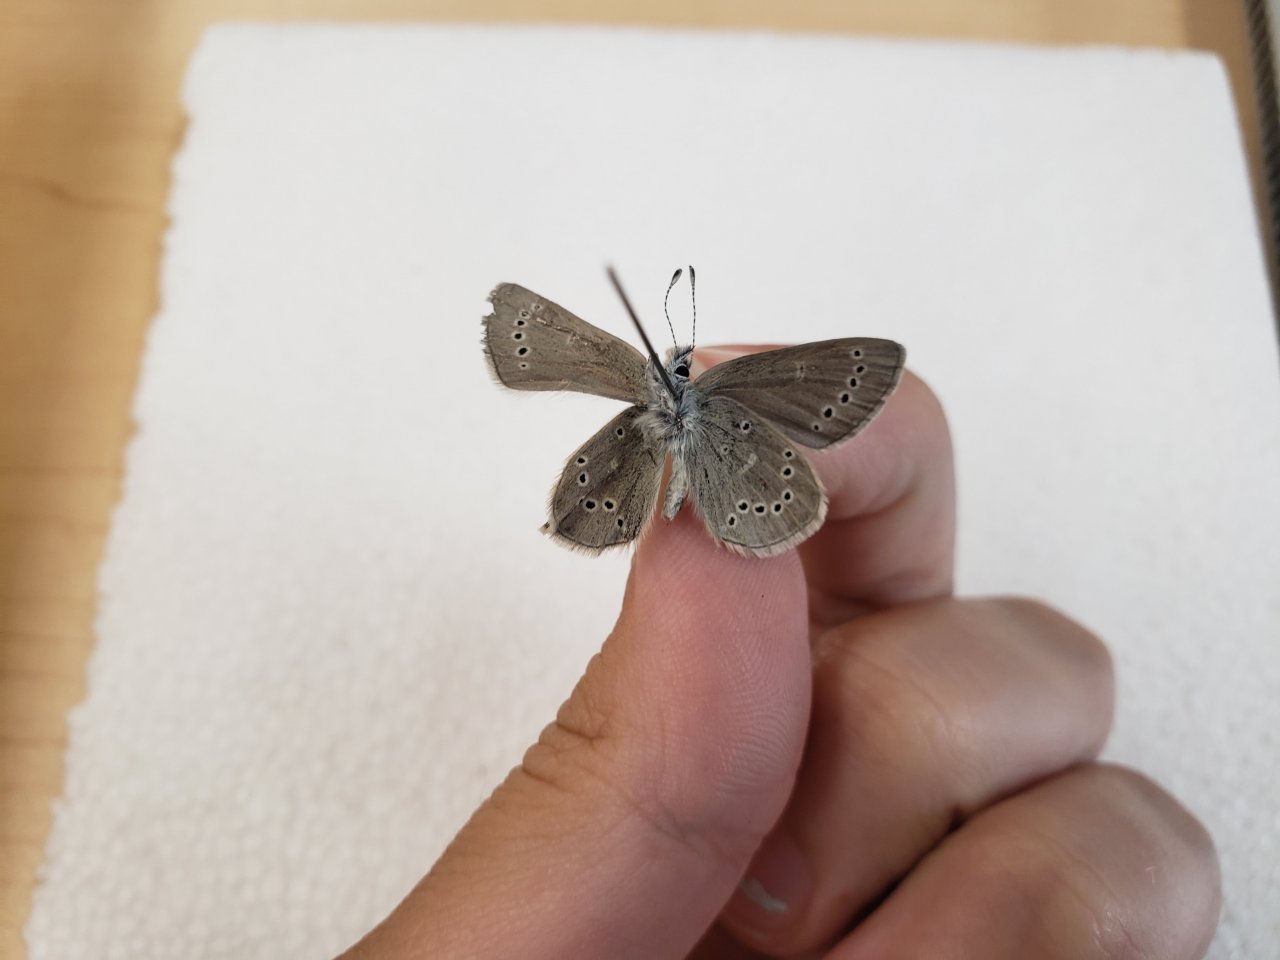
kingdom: Animalia
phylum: Arthropoda
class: Insecta
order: Lepidoptera
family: Lycaenidae
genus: Glaucopsyche
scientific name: Glaucopsyche lygdamus
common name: Silvery Blue
